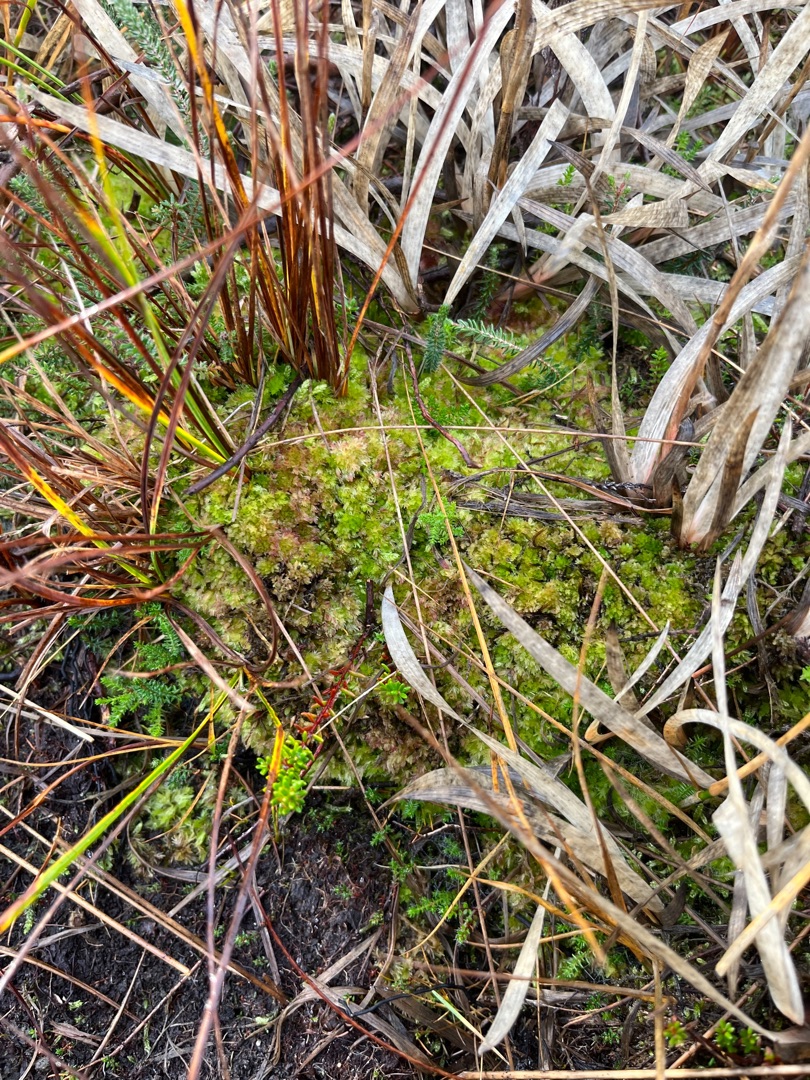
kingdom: Plantae
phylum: Bryophyta
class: Sphagnopsida
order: Sphagnales
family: Sphagnaceae
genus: Sphagnum
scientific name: Sphagnum molle
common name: Blød tørvemos
